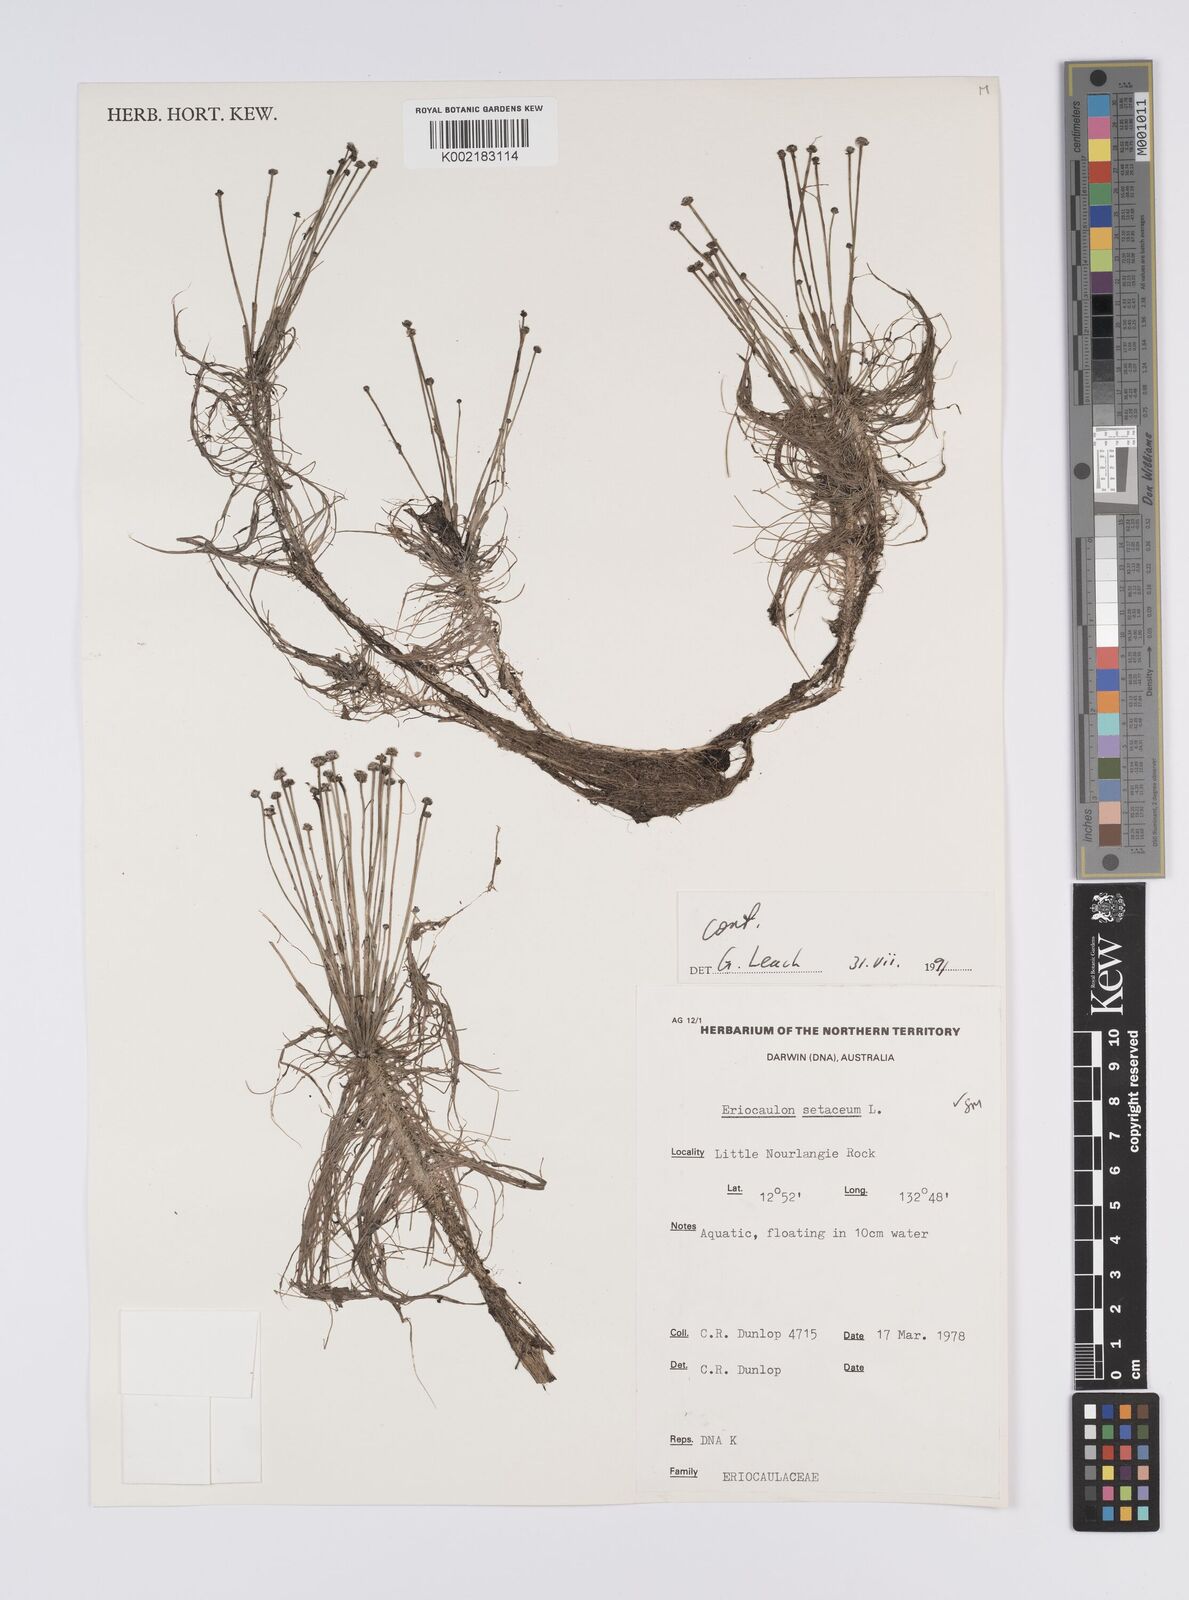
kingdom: Plantae
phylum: Tracheophyta
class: Liliopsida
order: Poales
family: Eriocaulaceae
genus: Eriocaulon
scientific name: Eriocaulon setaceum
